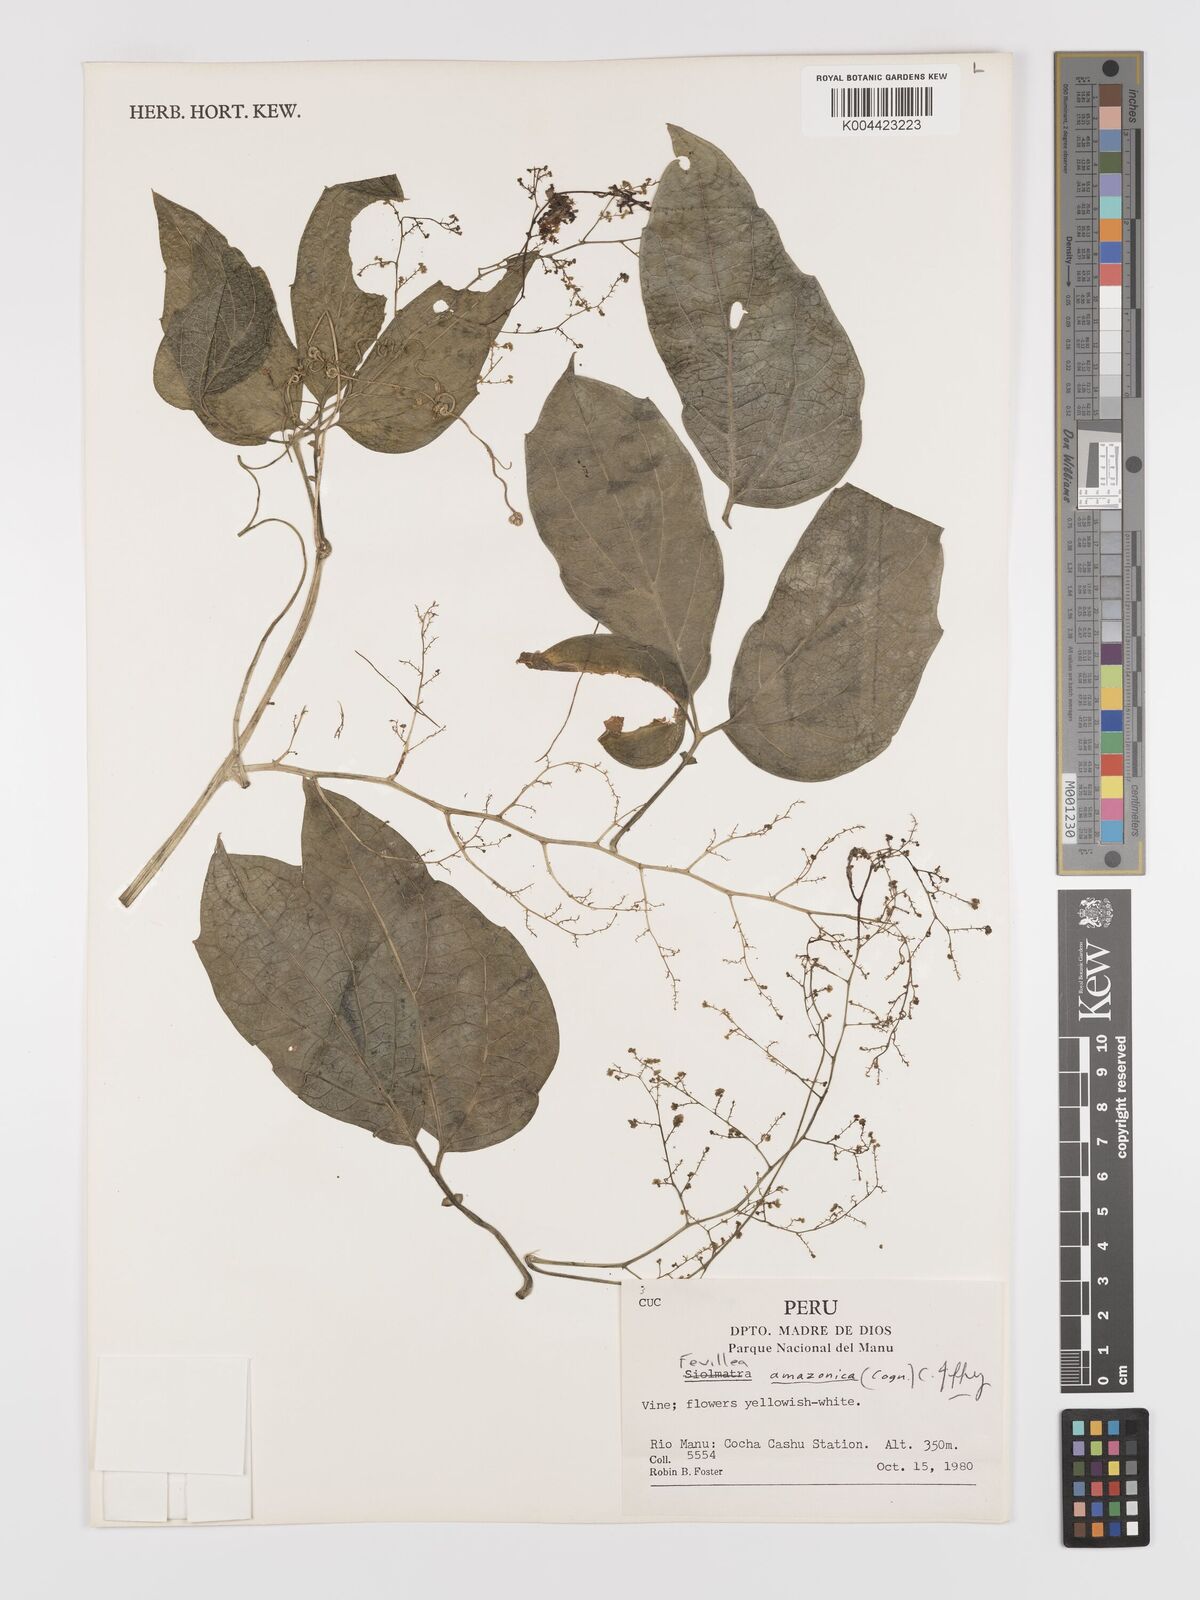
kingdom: Plantae
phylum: Tracheophyta
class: Magnoliopsida
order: Cucurbitales
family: Cucurbitaceae
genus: Fevillea
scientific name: Fevillea pedatifolia
